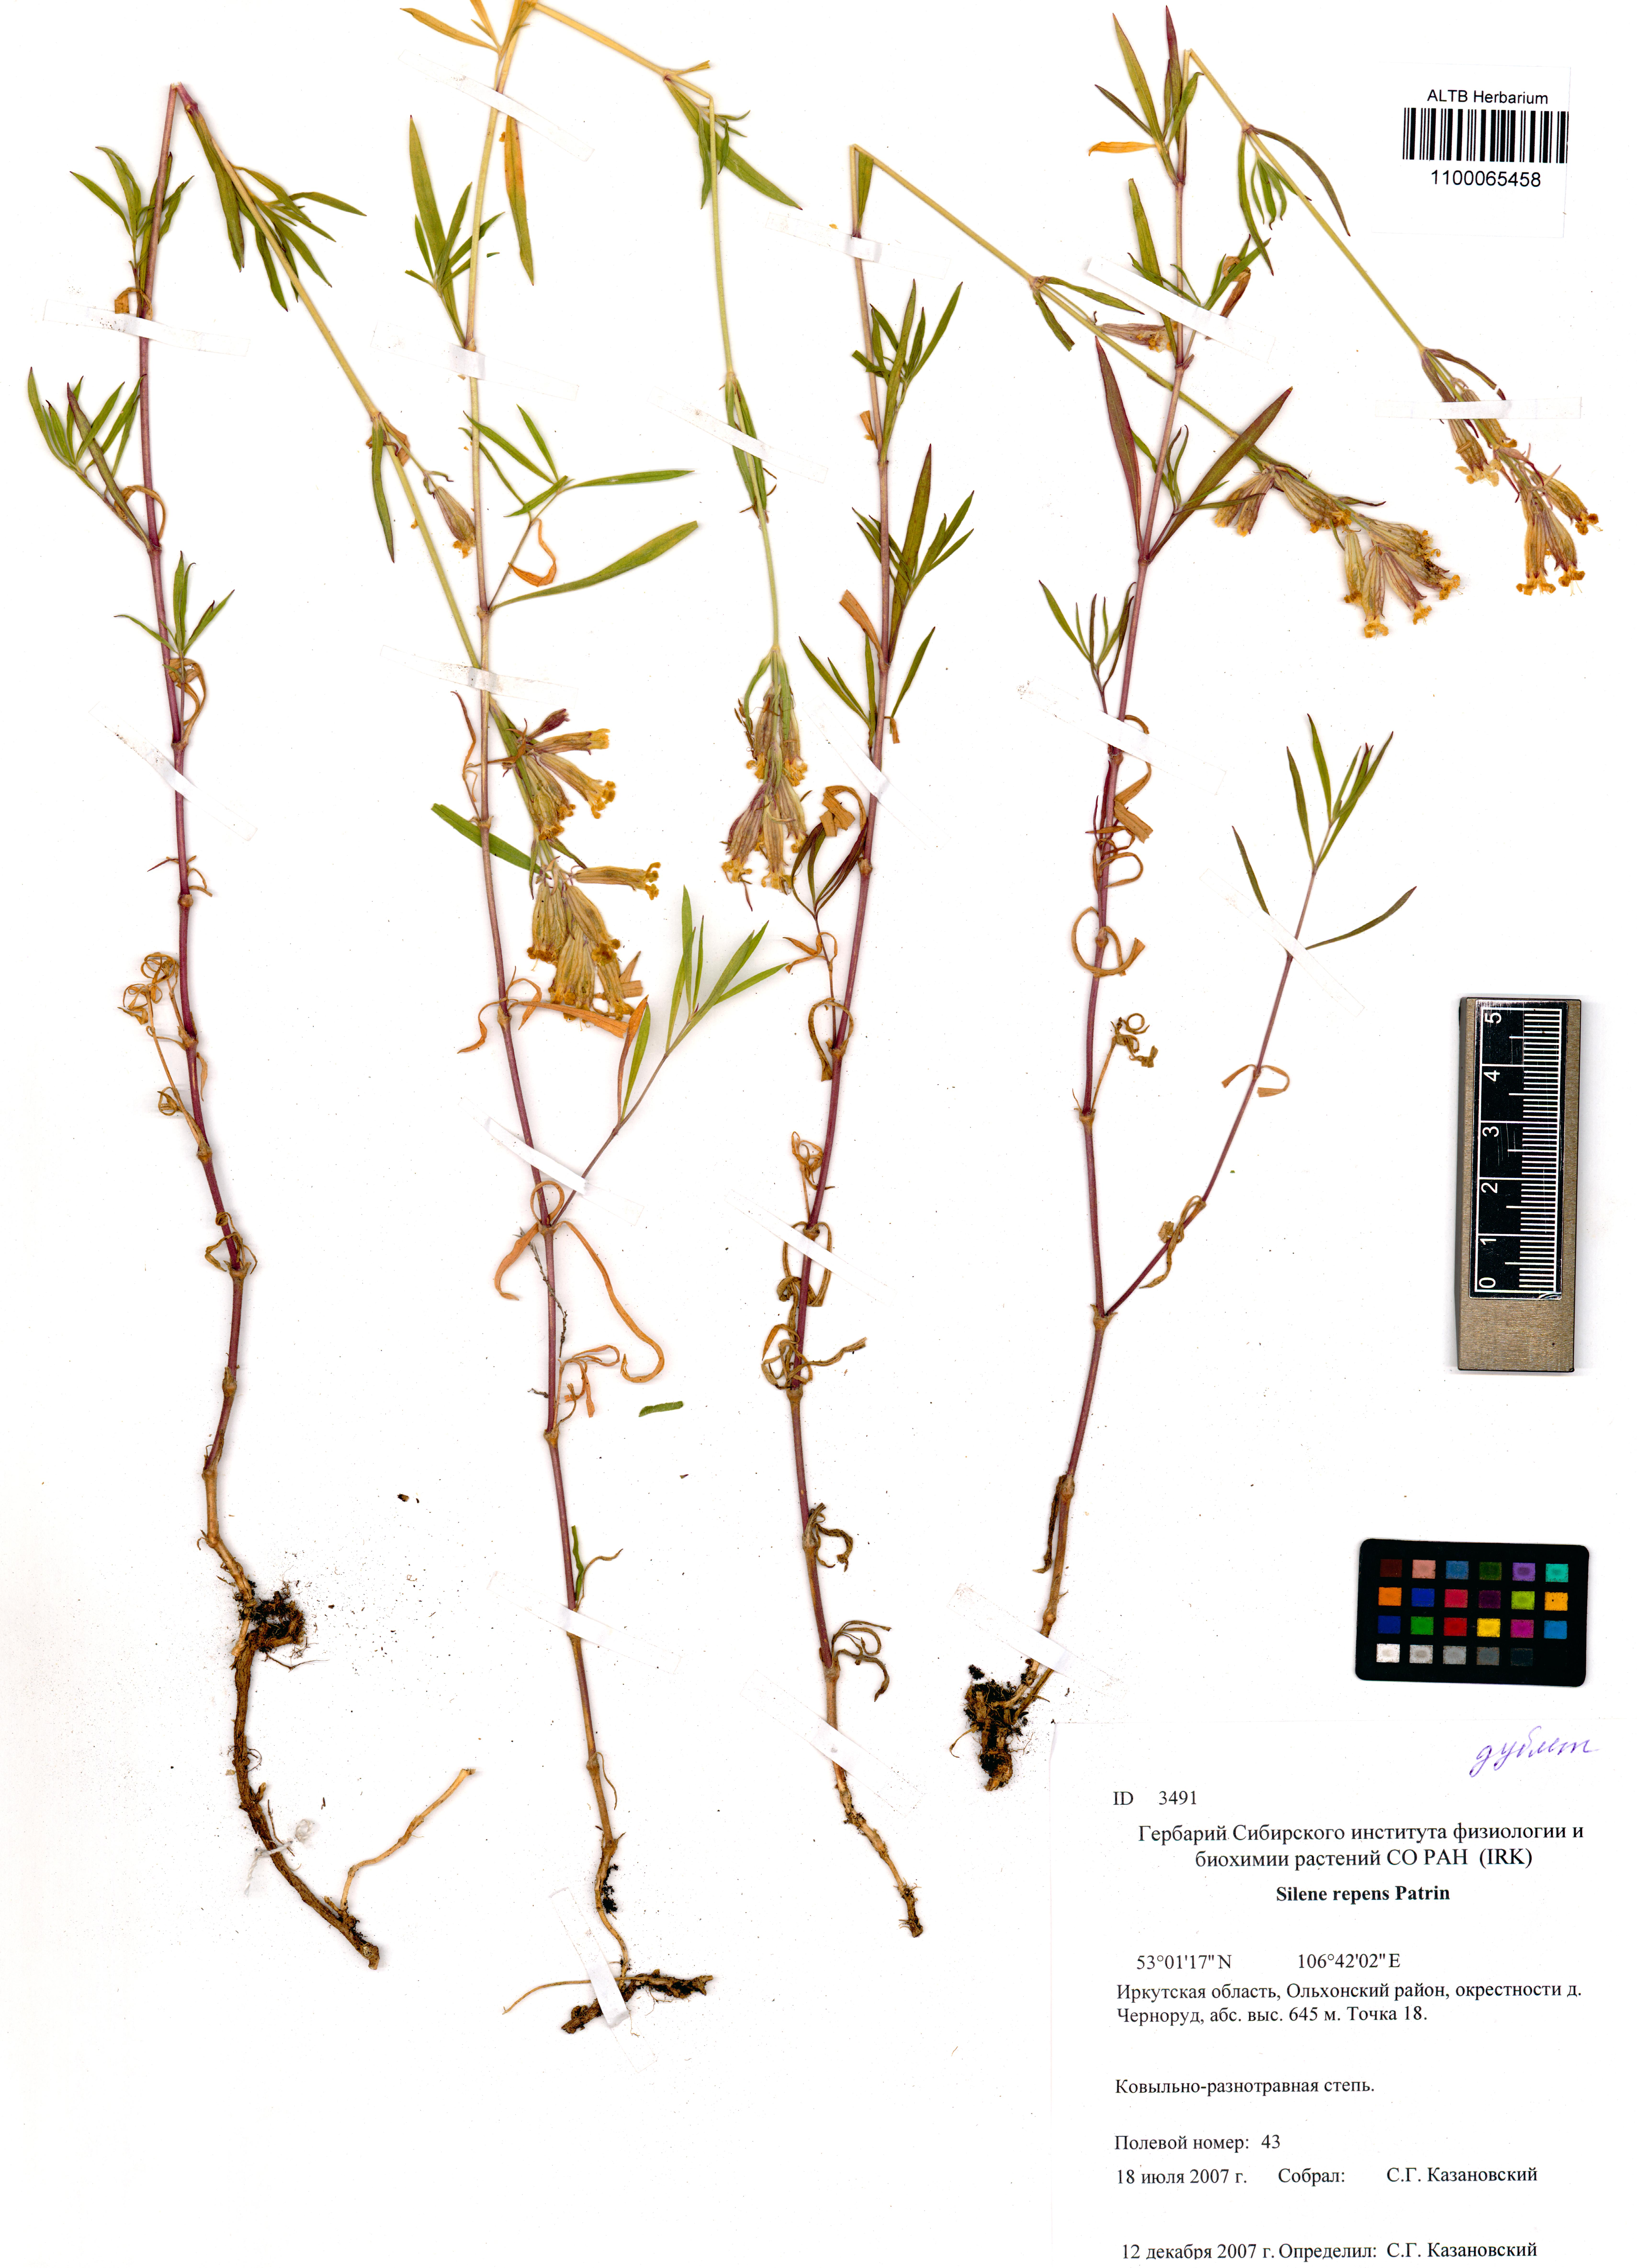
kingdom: Plantae
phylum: Tracheophyta
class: Magnoliopsida
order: Caryophyllales
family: Caryophyllaceae
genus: Silene
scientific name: Silene repens
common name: Pink campion
